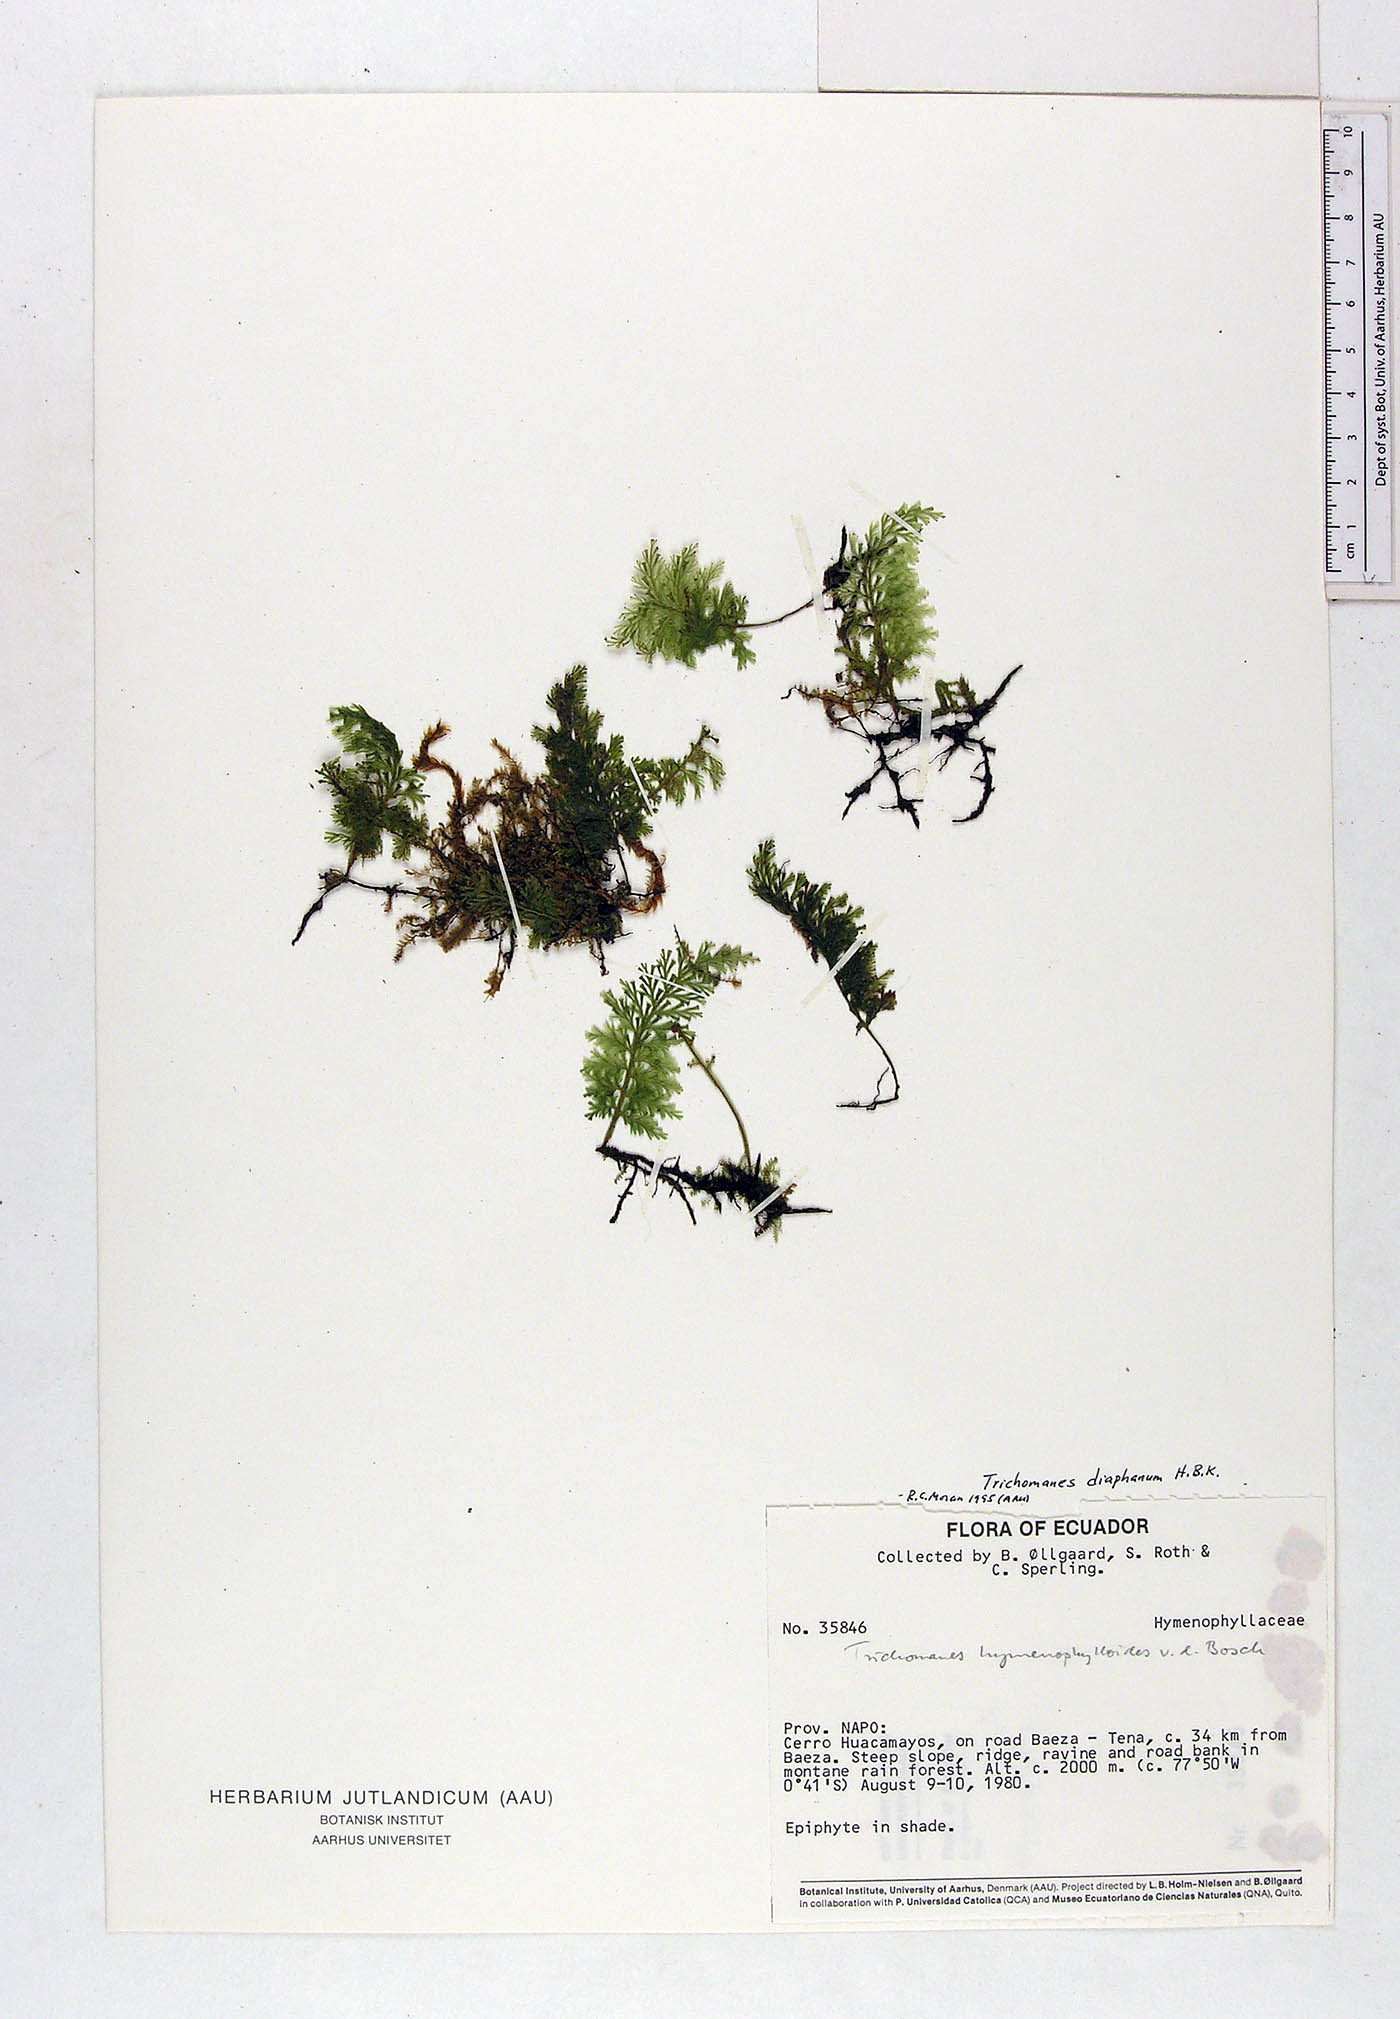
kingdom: Plantae
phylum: Tracheophyta
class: Polypodiopsida
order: Hymenophyllales
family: Hymenophyllaceae
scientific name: Hymenophyllaceae
